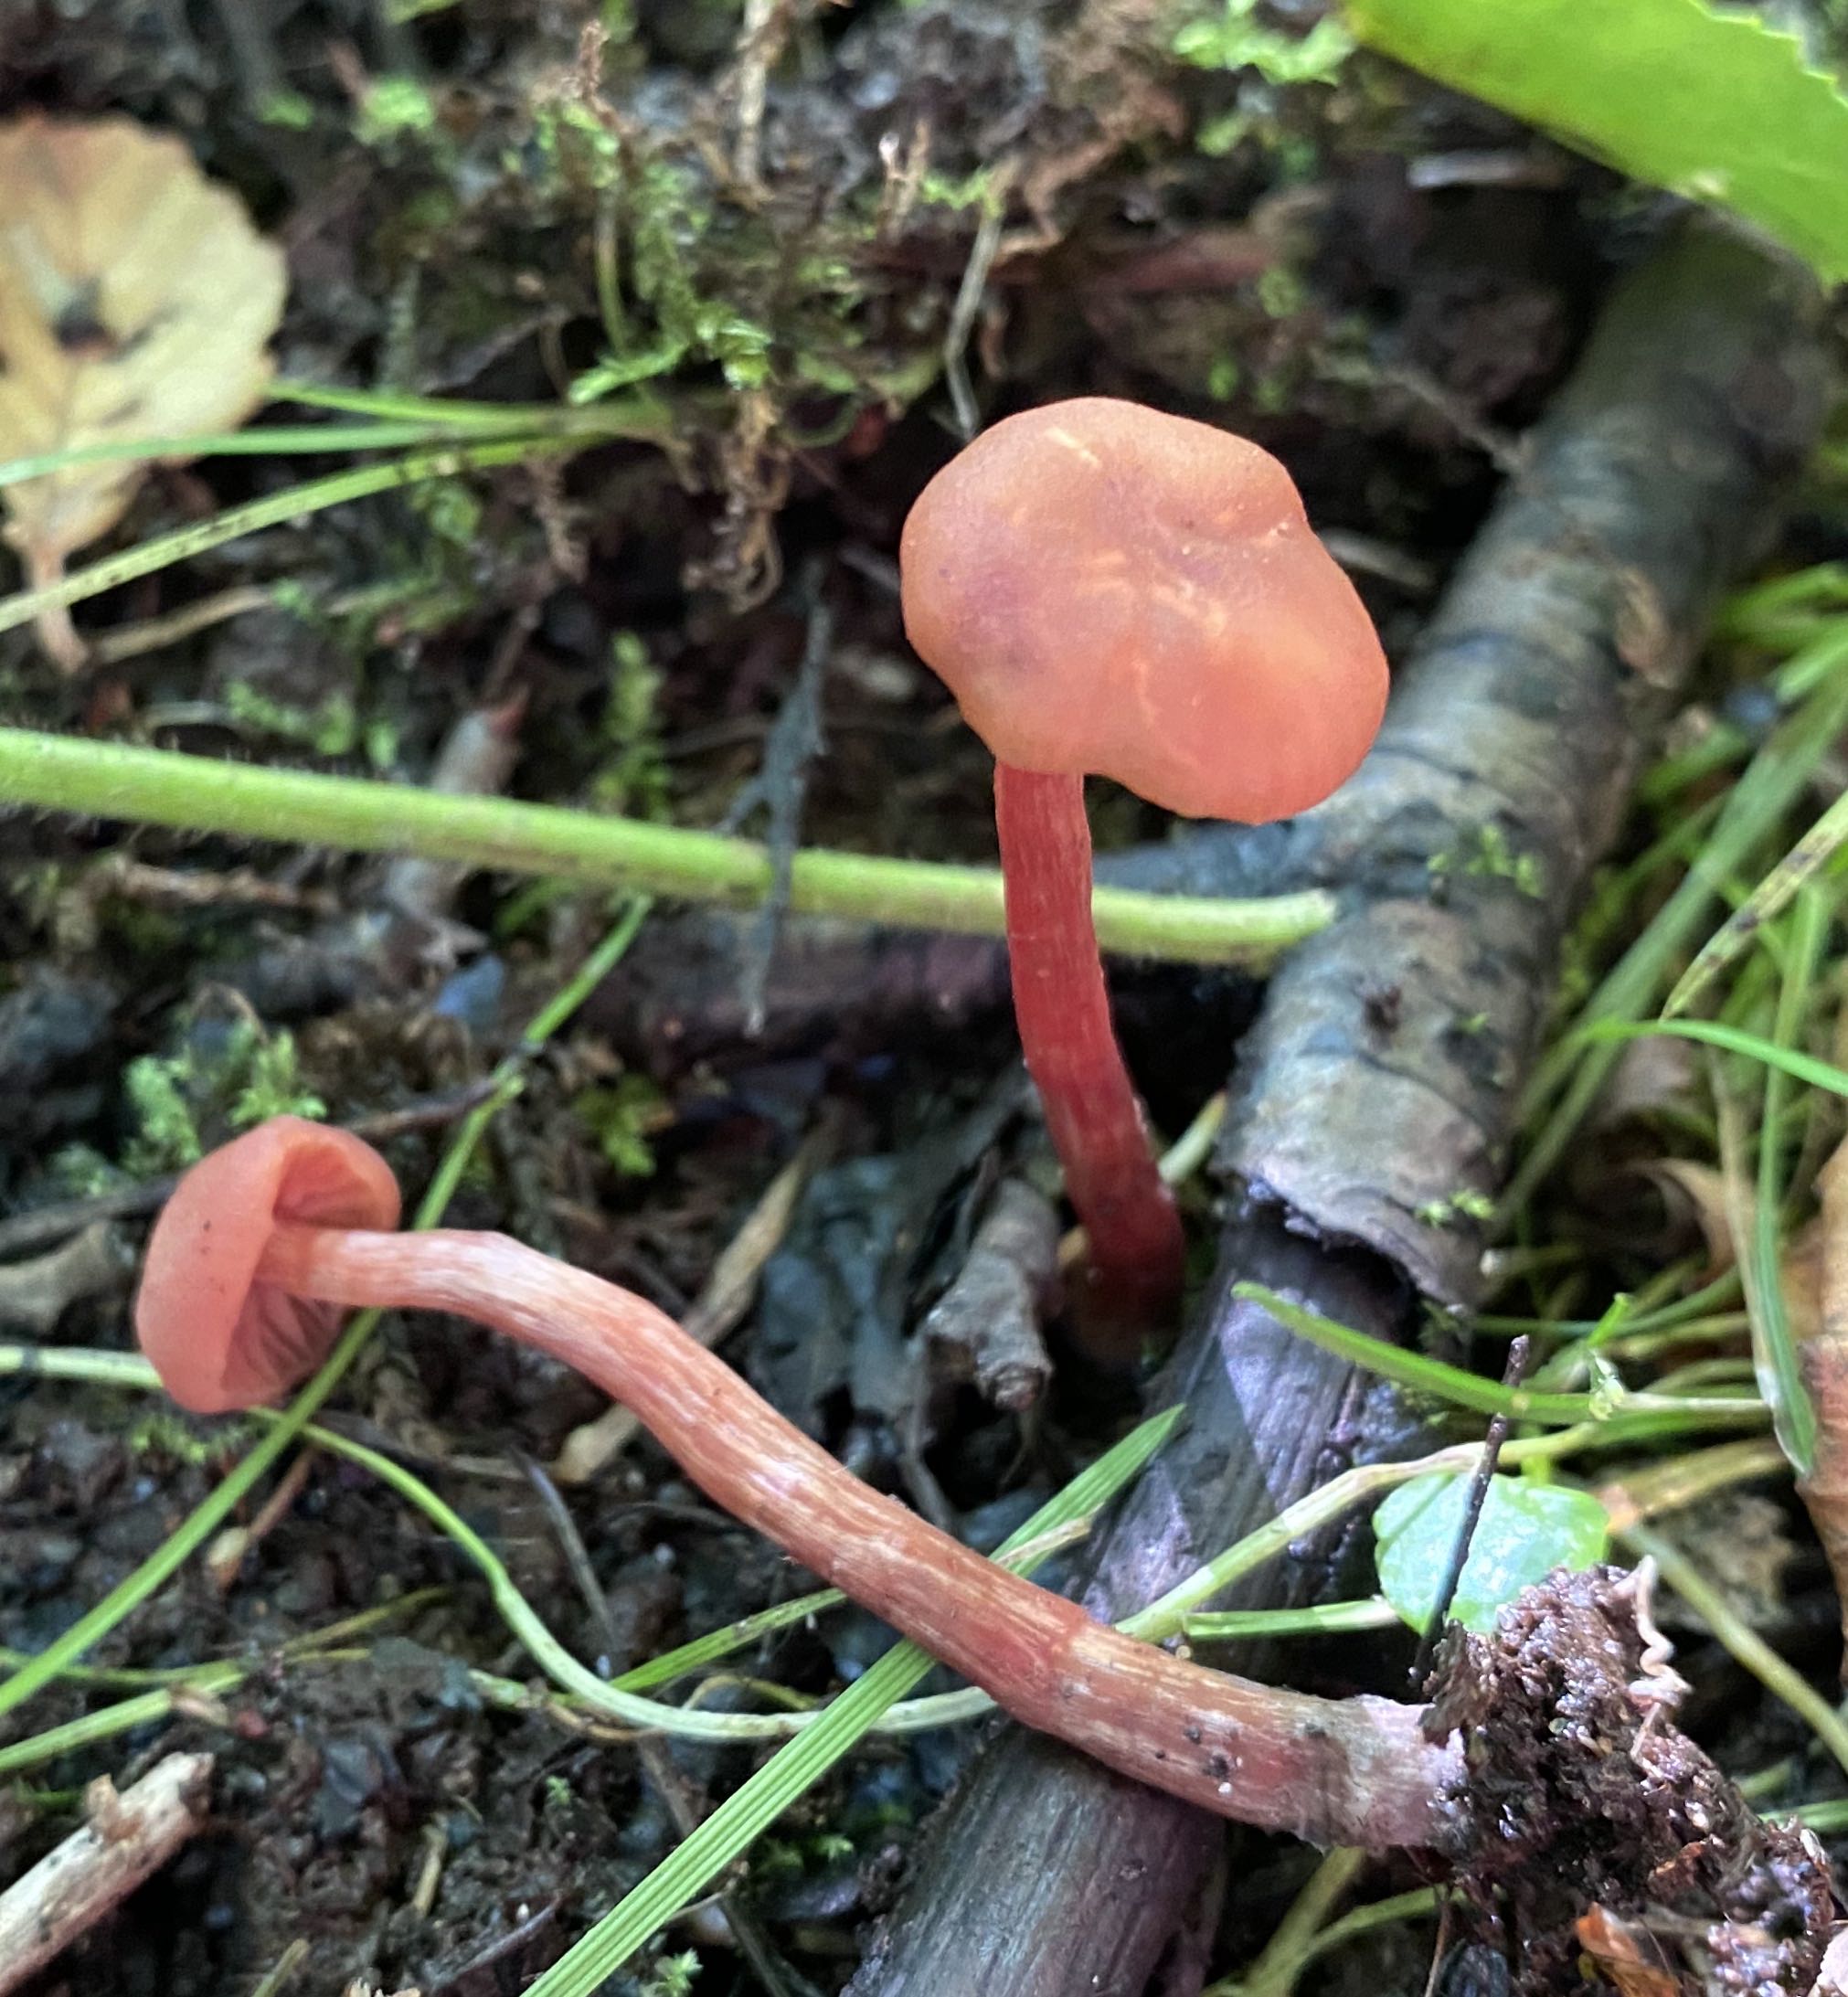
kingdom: Fungi
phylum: Basidiomycota
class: Agaricomycetes
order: Agaricales
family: Hydnangiaceae
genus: Laccaria
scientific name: Laccaria laccata
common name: rød ametysthat
